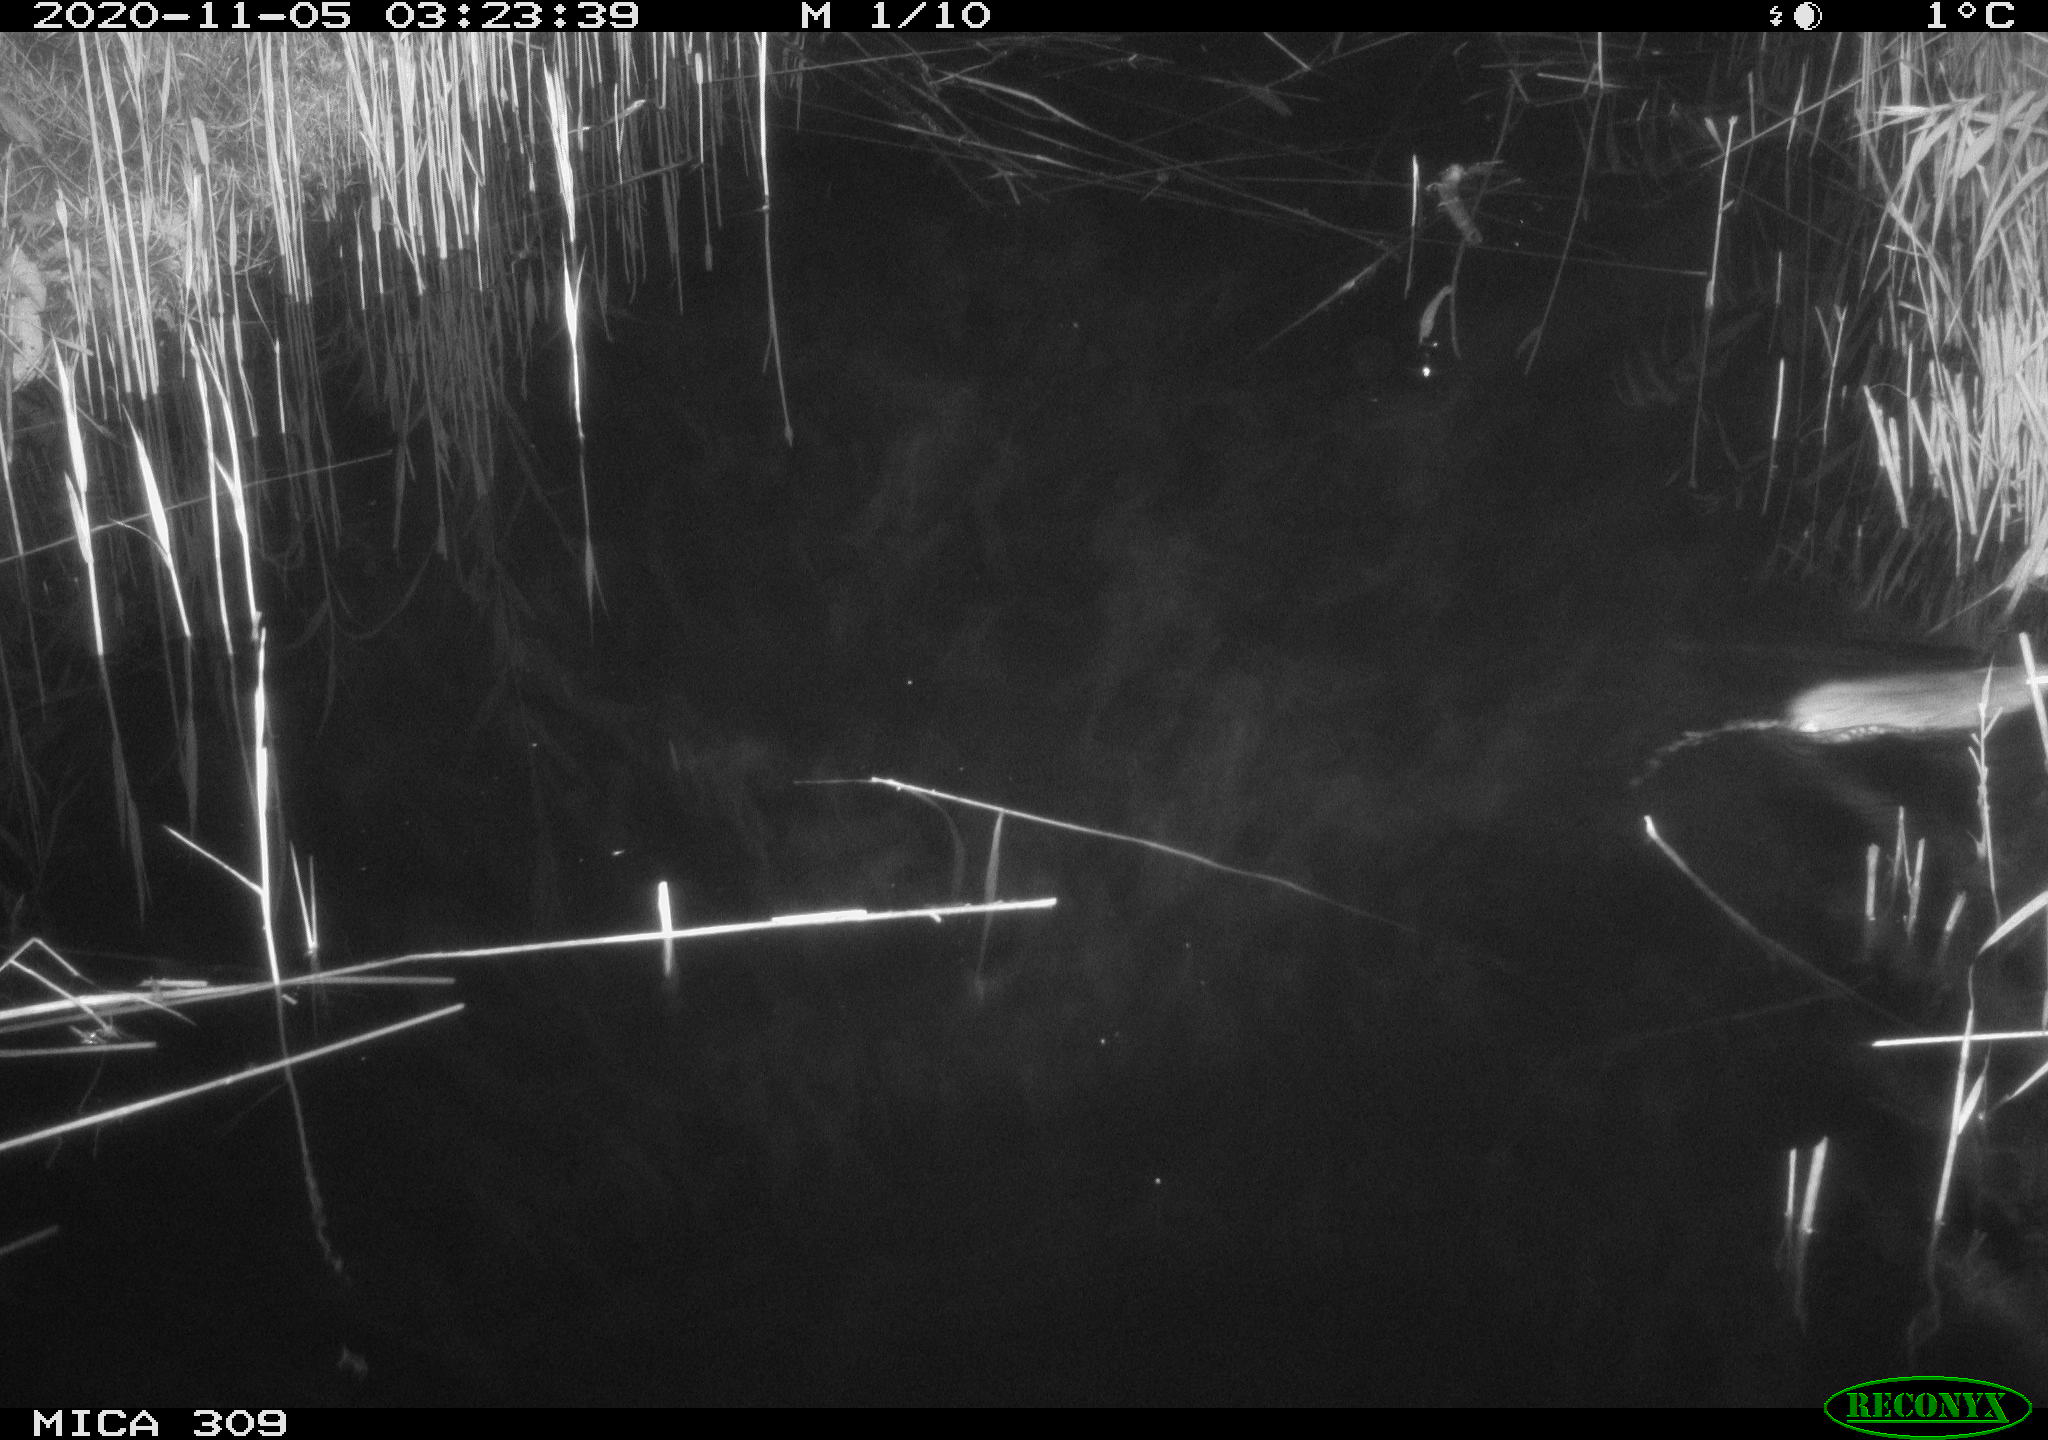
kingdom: Animalia
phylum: Chordata
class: Mammalia
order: Rodentia
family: Muridae
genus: Rattus
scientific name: Rattus norvegicus
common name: Brown rat
